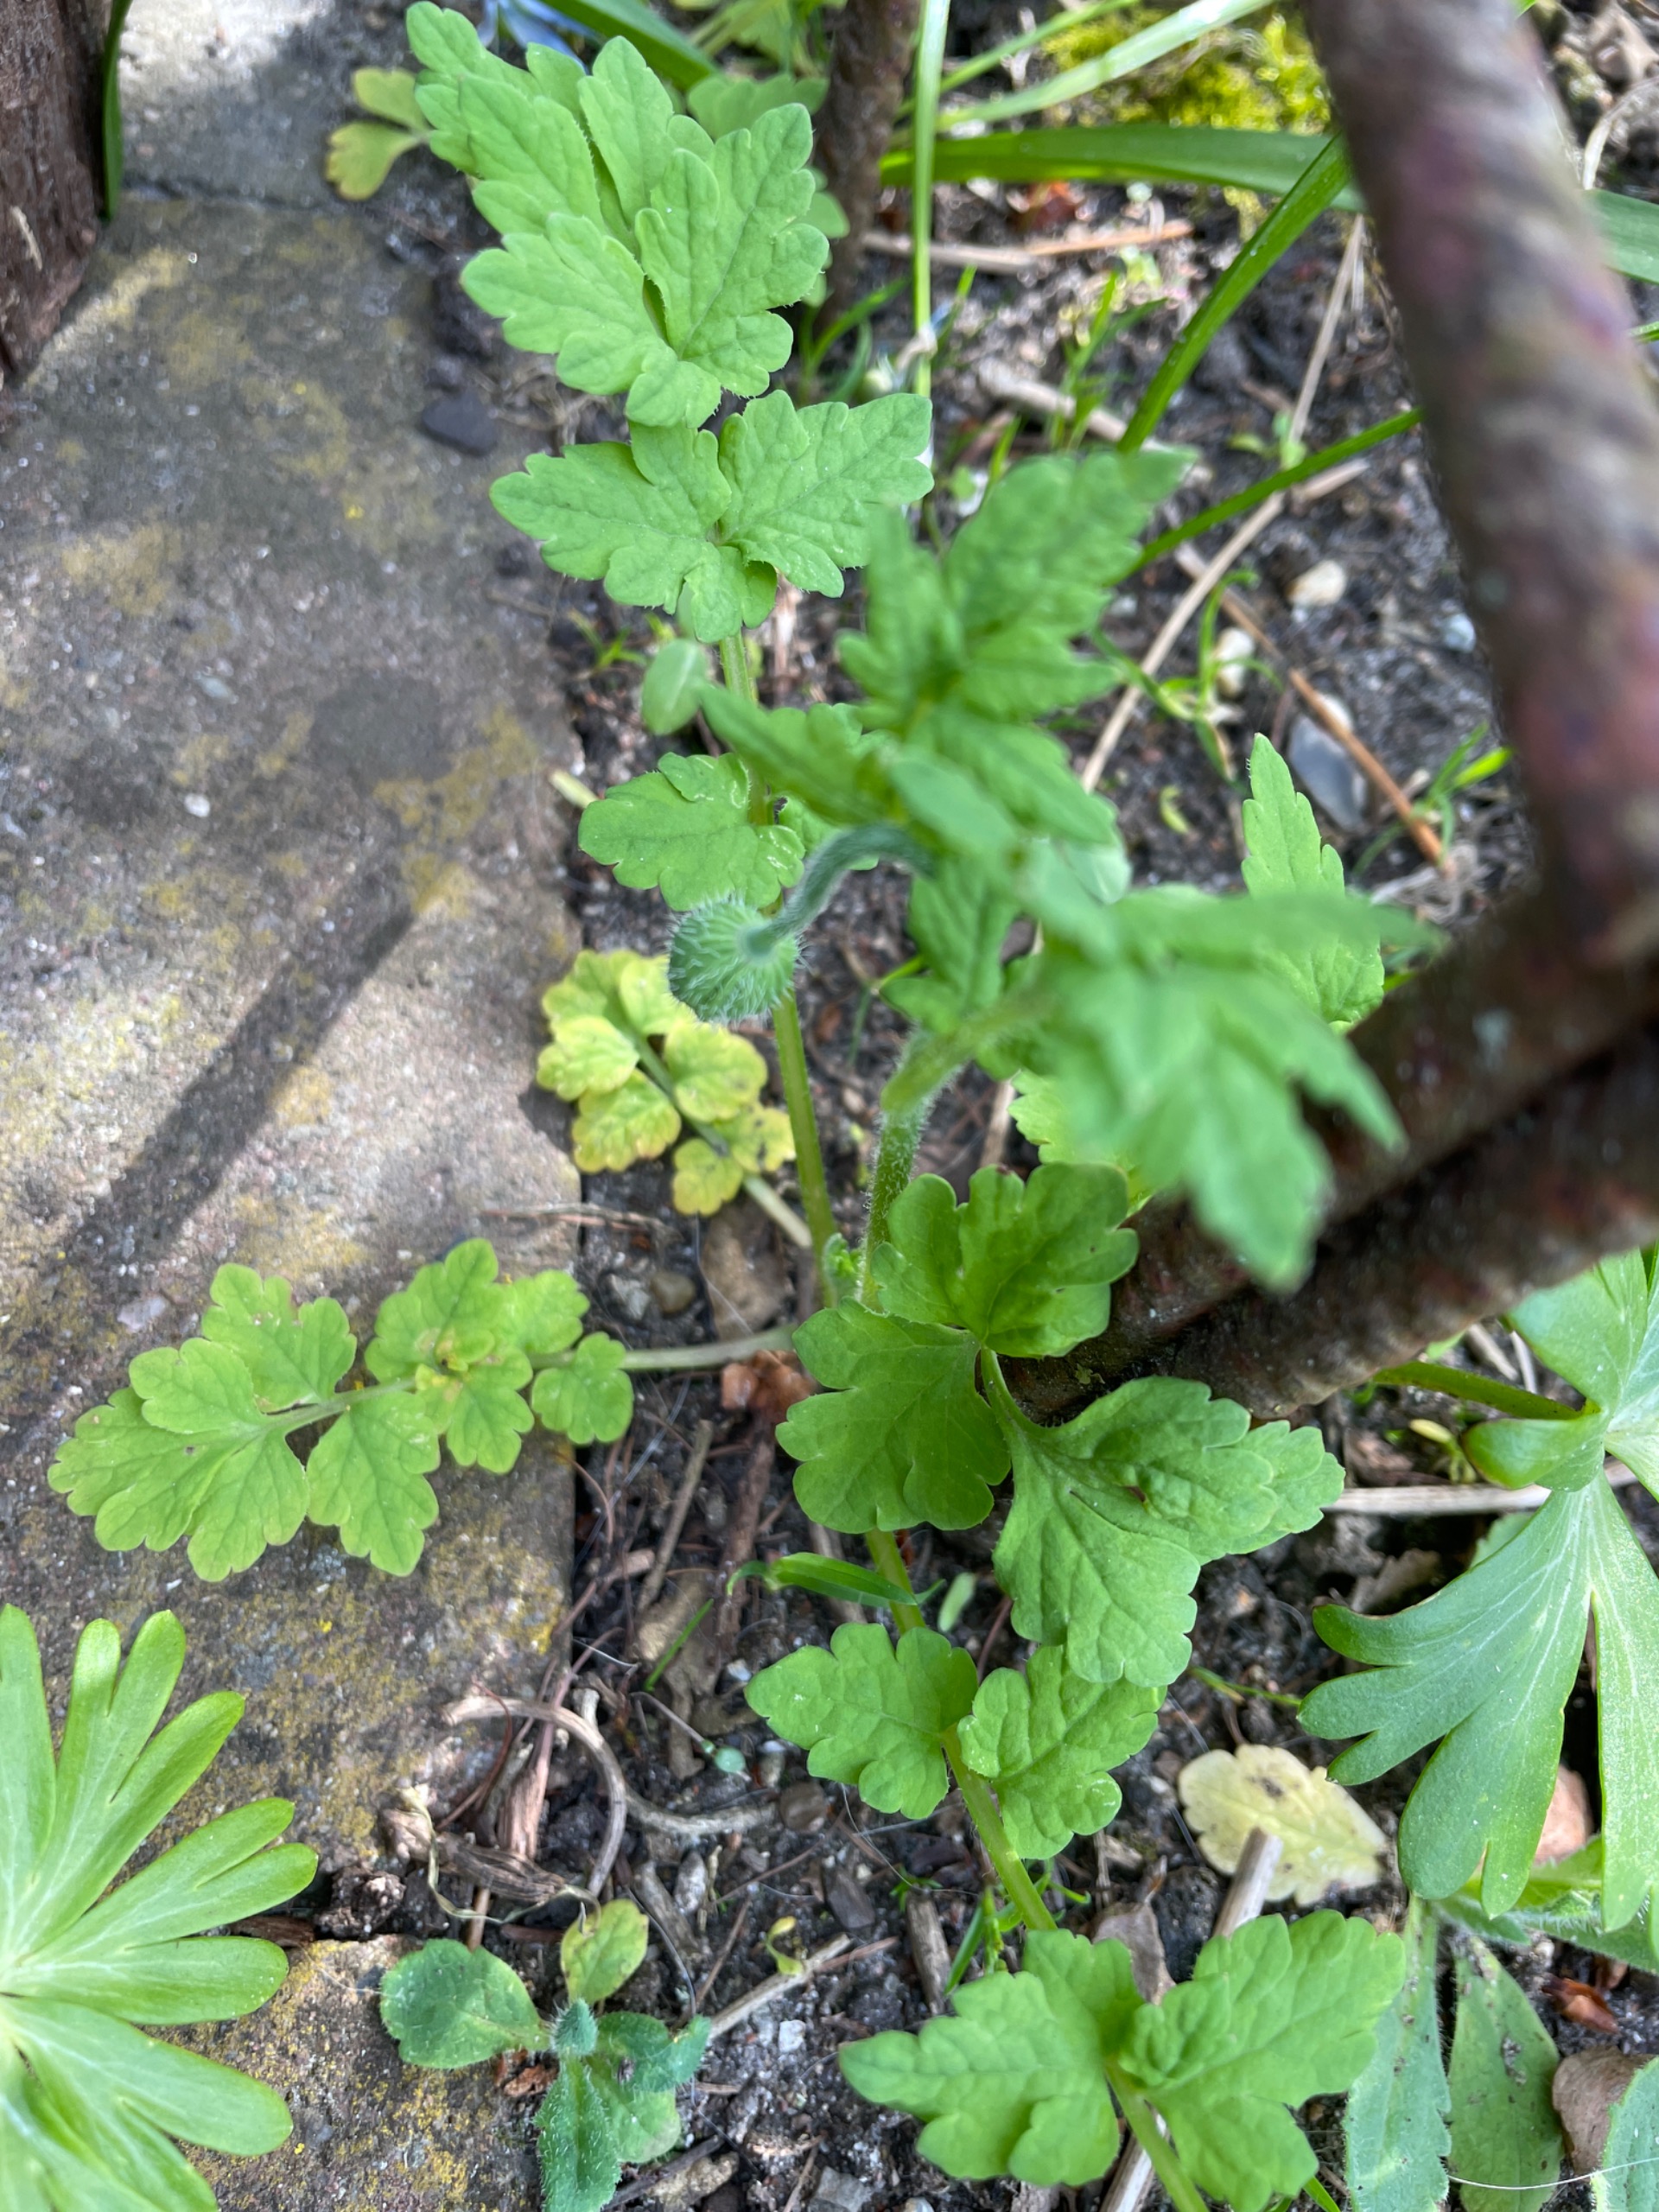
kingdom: Plantae
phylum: Tracheophyta
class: Magnoliopsida
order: Ranunculales
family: Papaveraceae
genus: Papaver
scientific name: Papaver cambricum
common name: Skov-valmue
